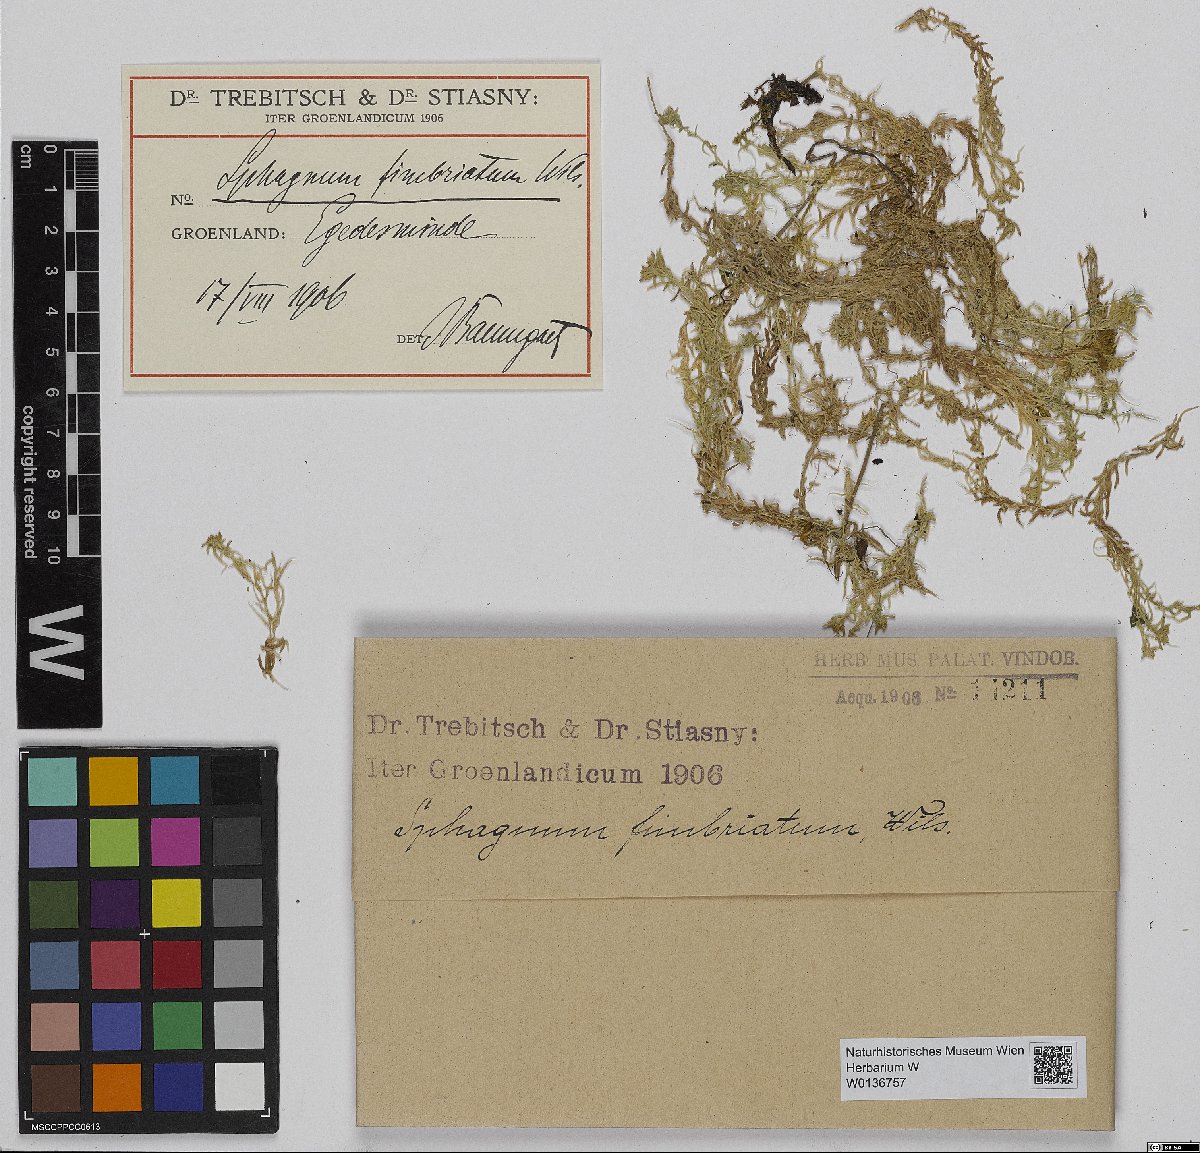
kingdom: Plantae
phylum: Bryophyta
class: Sphagnopsida
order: Sphagnales
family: Sphagnaceae
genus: Sphagnum
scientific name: Sphagnum fimbriatum
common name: Fringed peat moss
